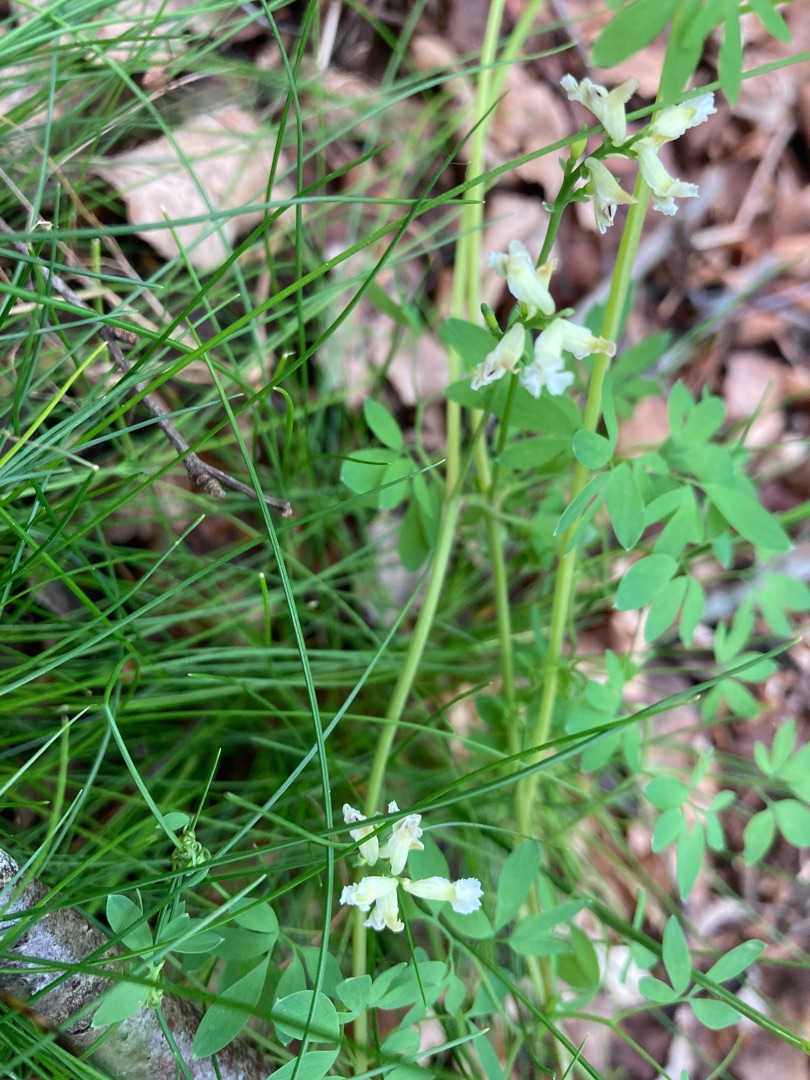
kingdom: Plantae
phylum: Tracheophyta
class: Magnoliopsida
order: Ranunculales
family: Papaveraceae
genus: Ceratocapnos
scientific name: Ceratocapnos claviculata
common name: Klatrende lærkespore
